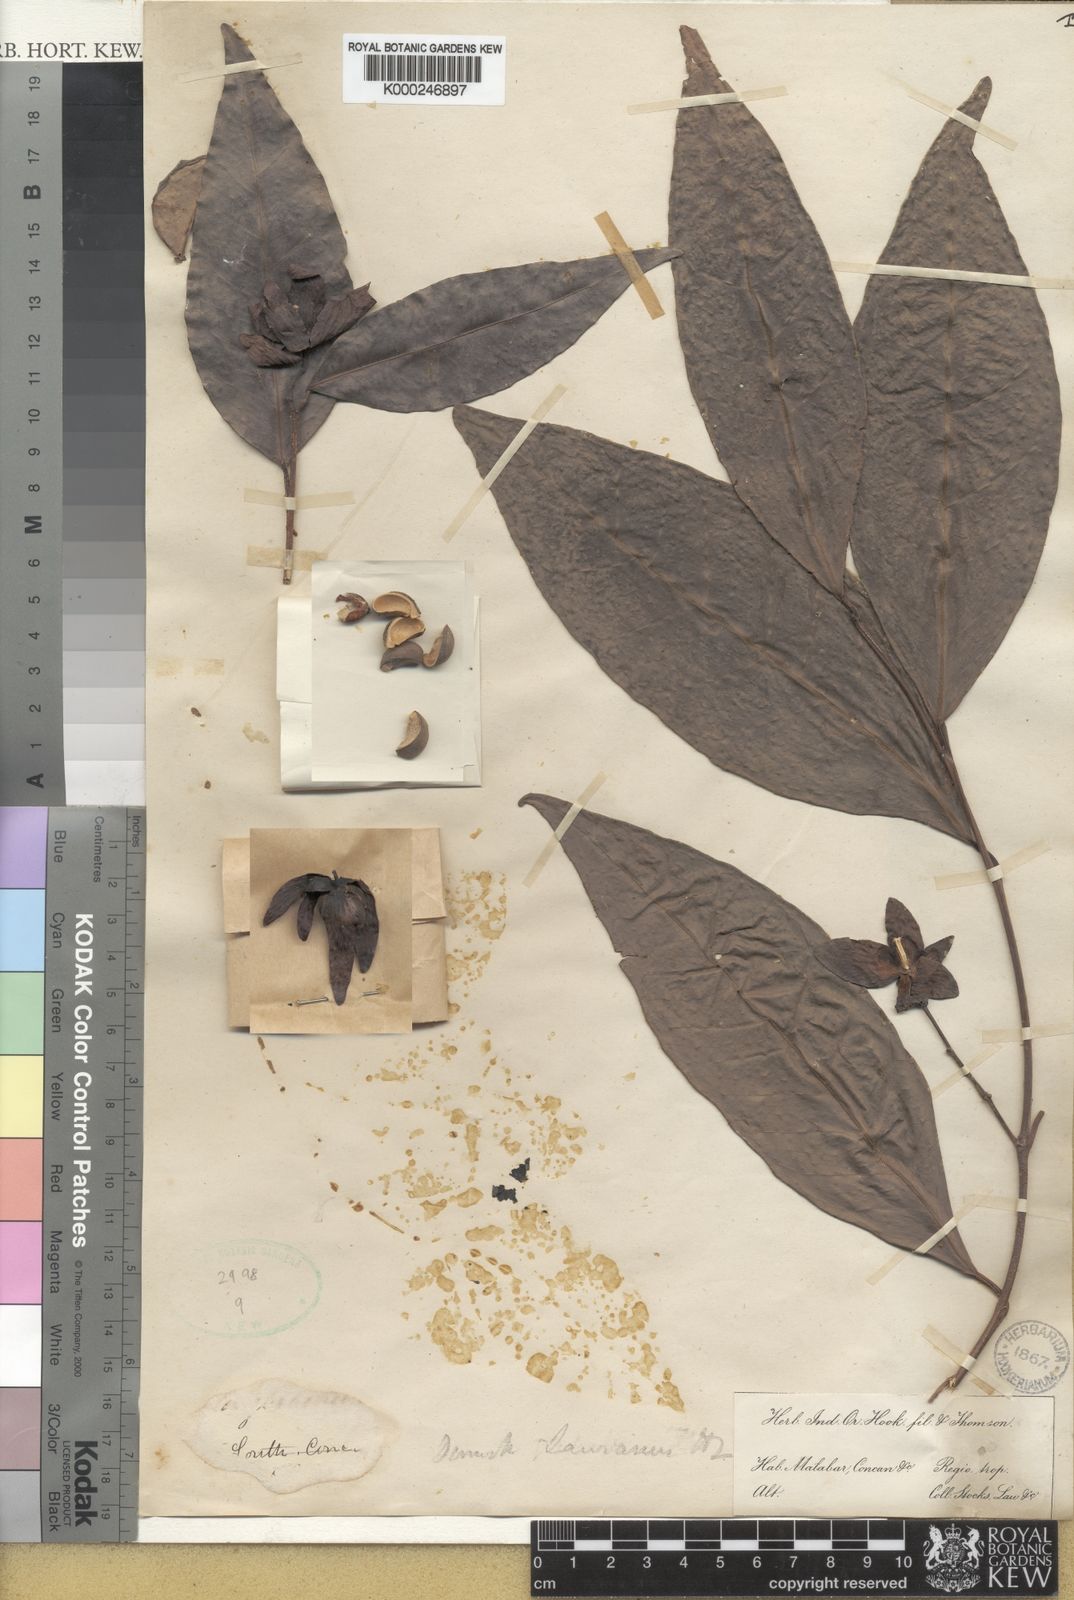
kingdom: Plantae
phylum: Tracheophyta
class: Magnoliopsida
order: Malpighiales
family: Euphorbiaceae
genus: Tritaxis
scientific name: Tritaxis glabella
